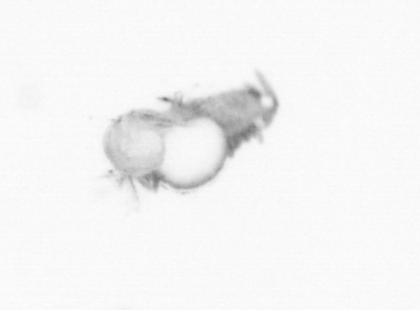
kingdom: Animalia
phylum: Annelida
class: Polychaeta
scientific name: Polychaeta
